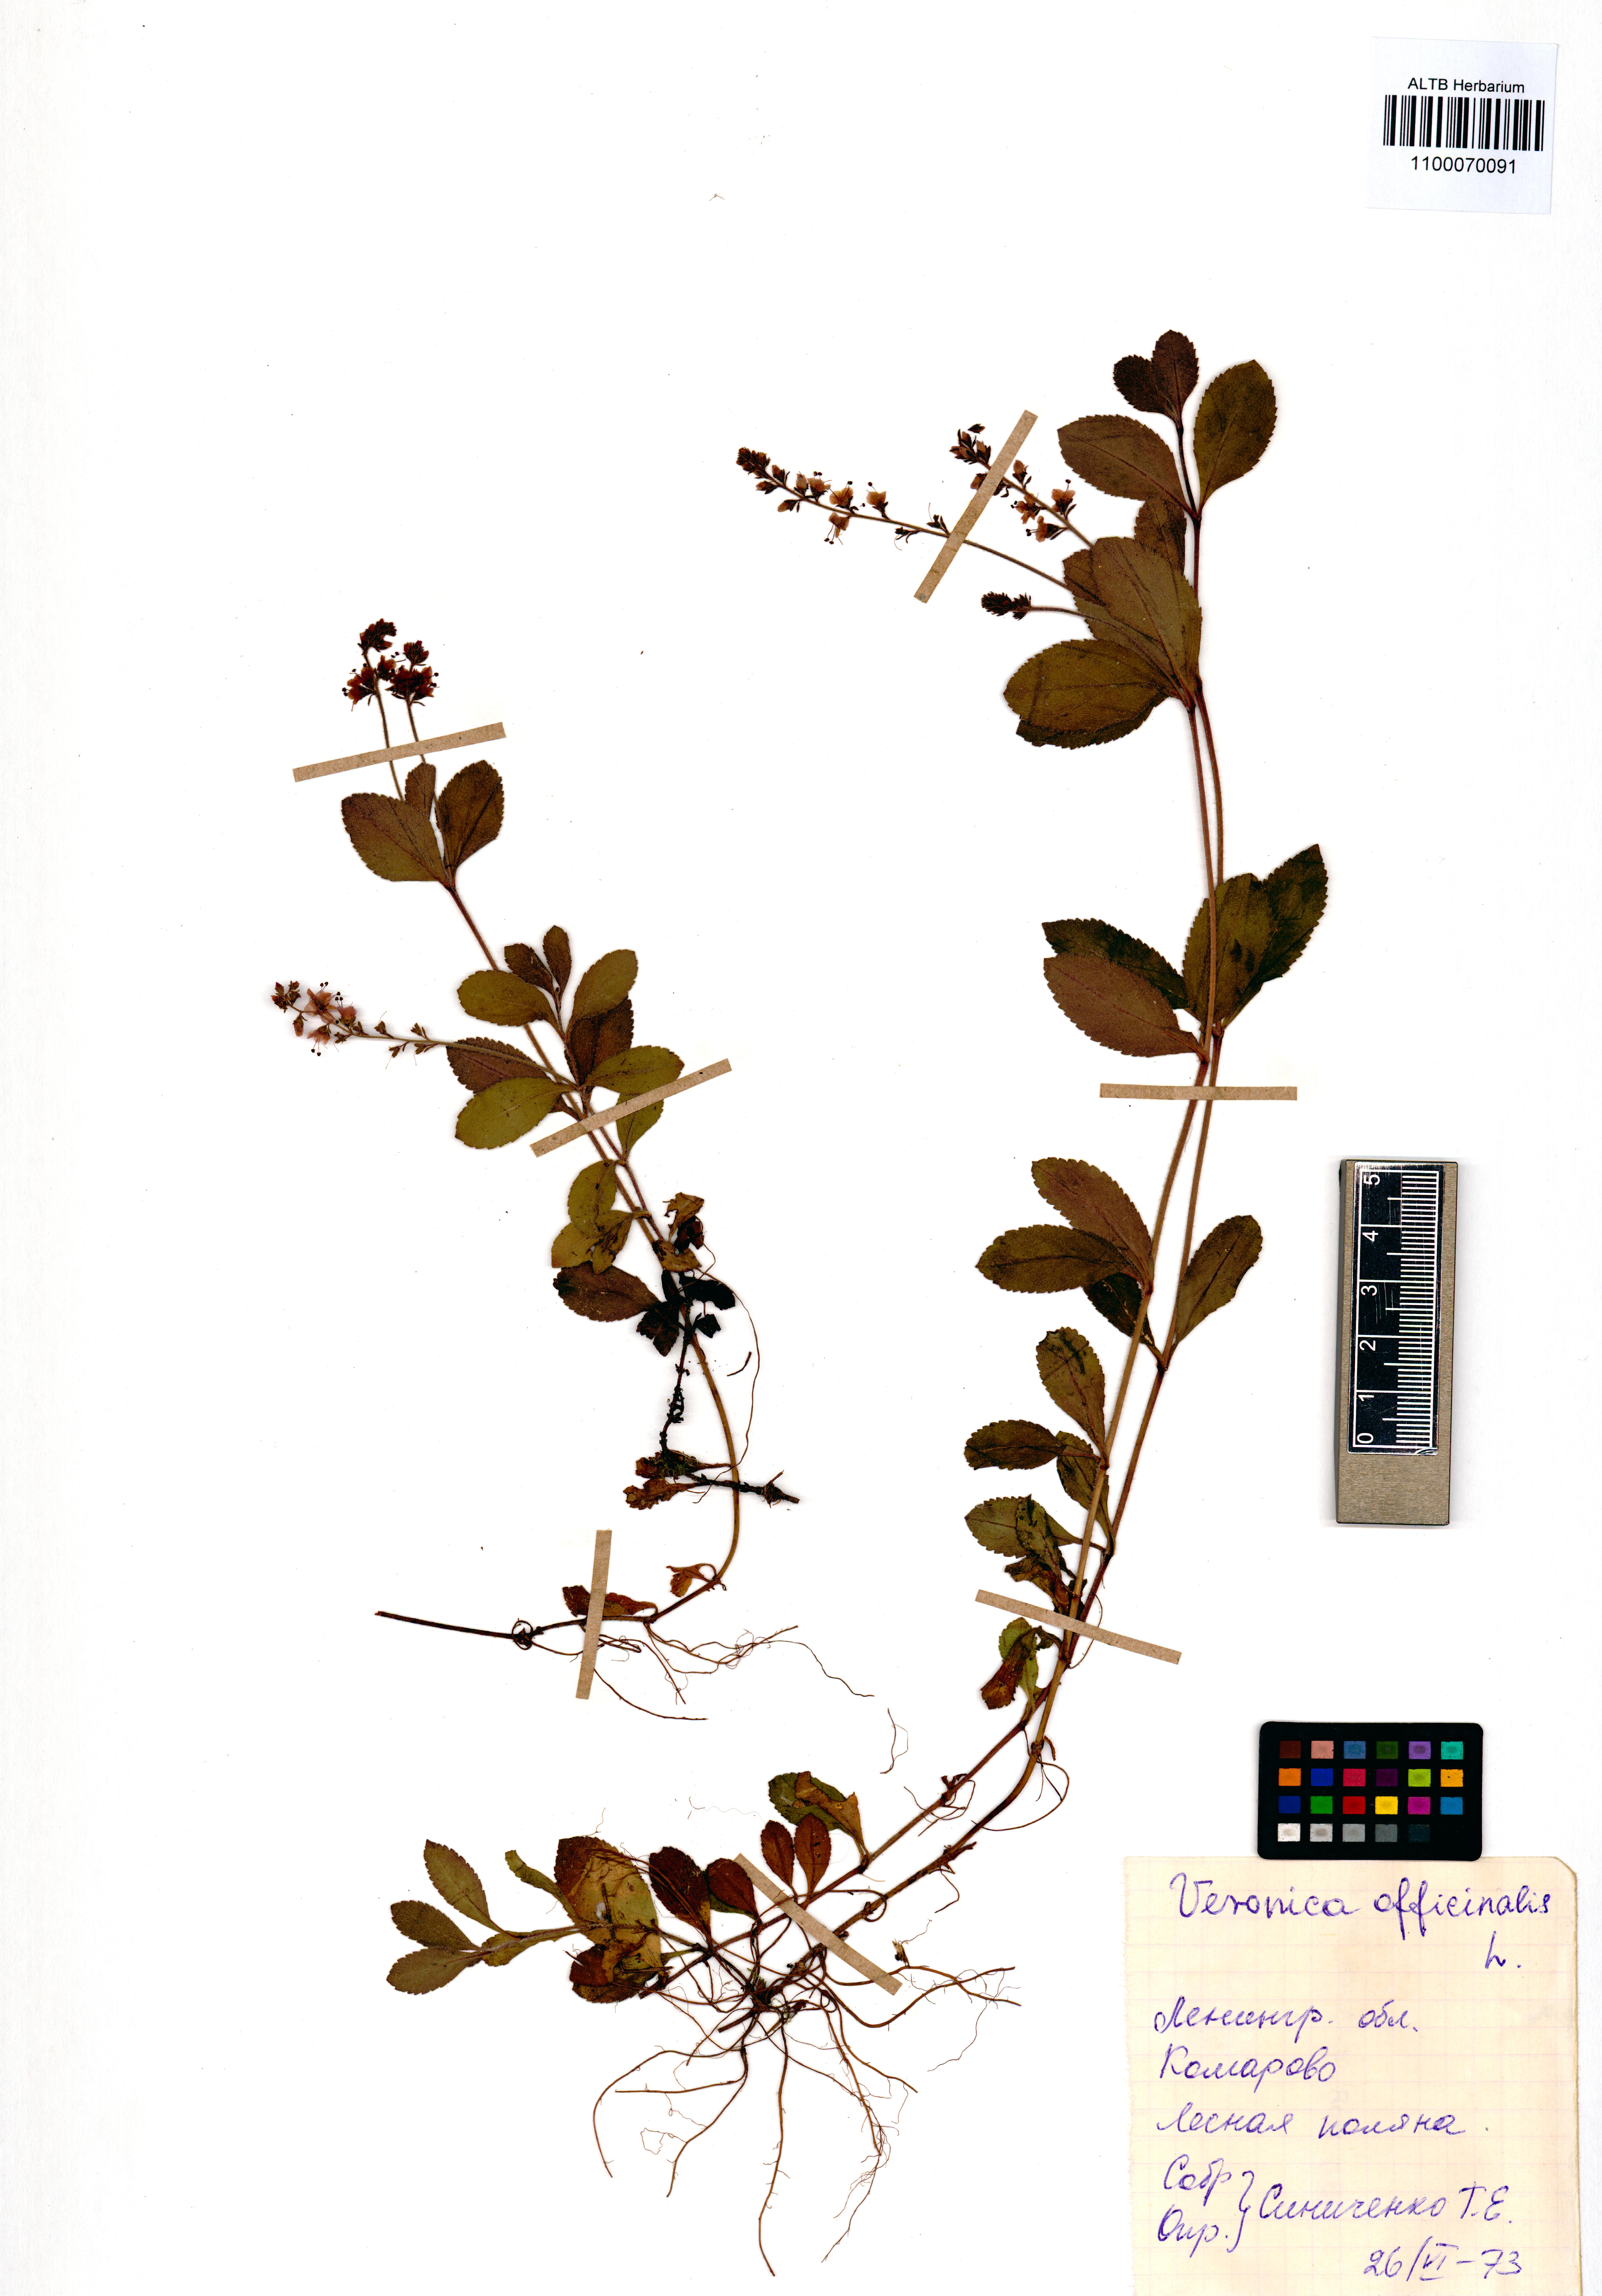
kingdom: Plantae
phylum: Tracheophyta
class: Magnoliopsida
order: Lamiales
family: Plantaginaceae
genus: Veronica
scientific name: Veronica officinalis
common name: Common speedwell
